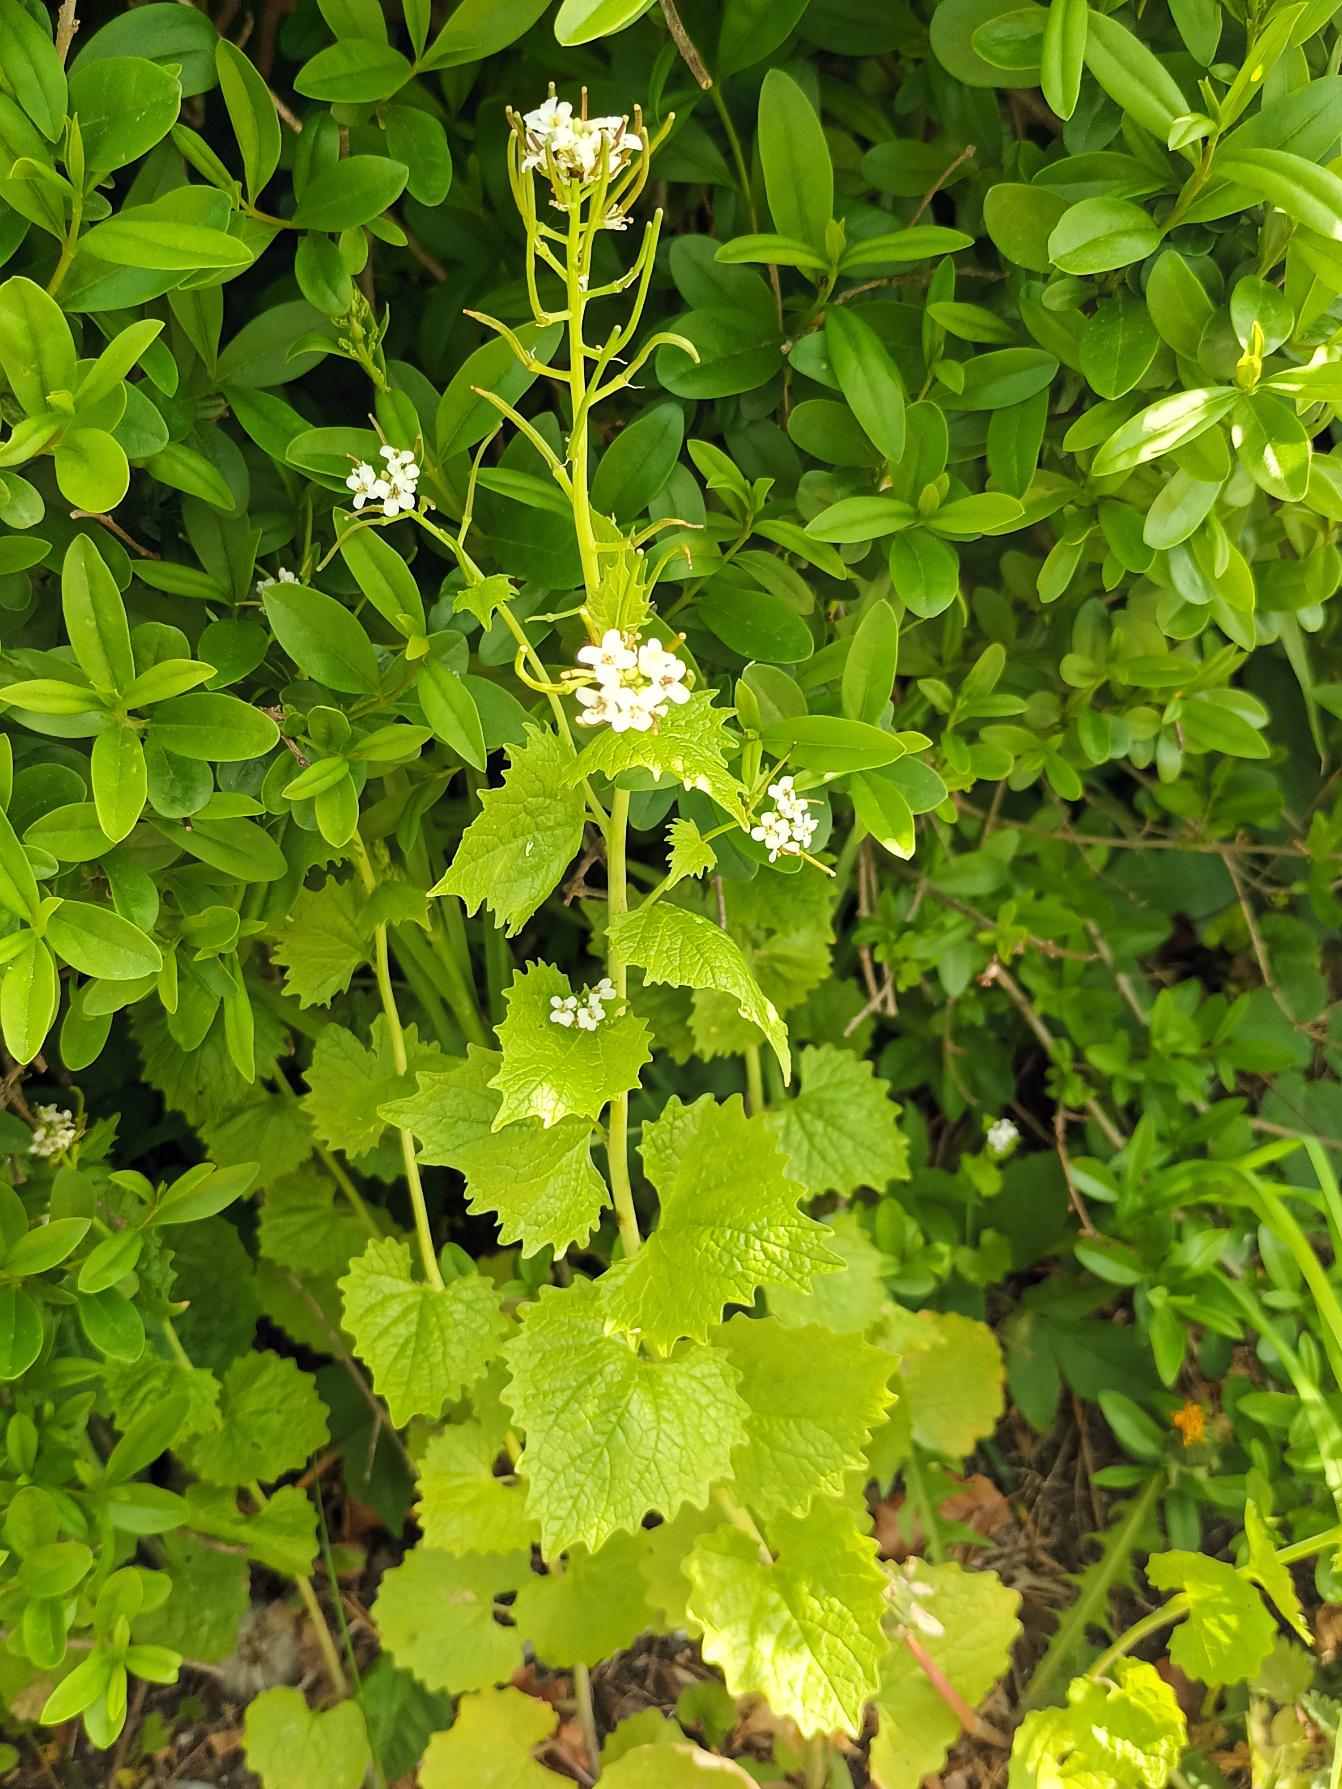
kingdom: Plantae
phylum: Tracheophyta
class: Magnoliopsida
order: Brassicales
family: Brassicaceae
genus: Alliaria
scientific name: Alliaria petiolata
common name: Løgkarse
